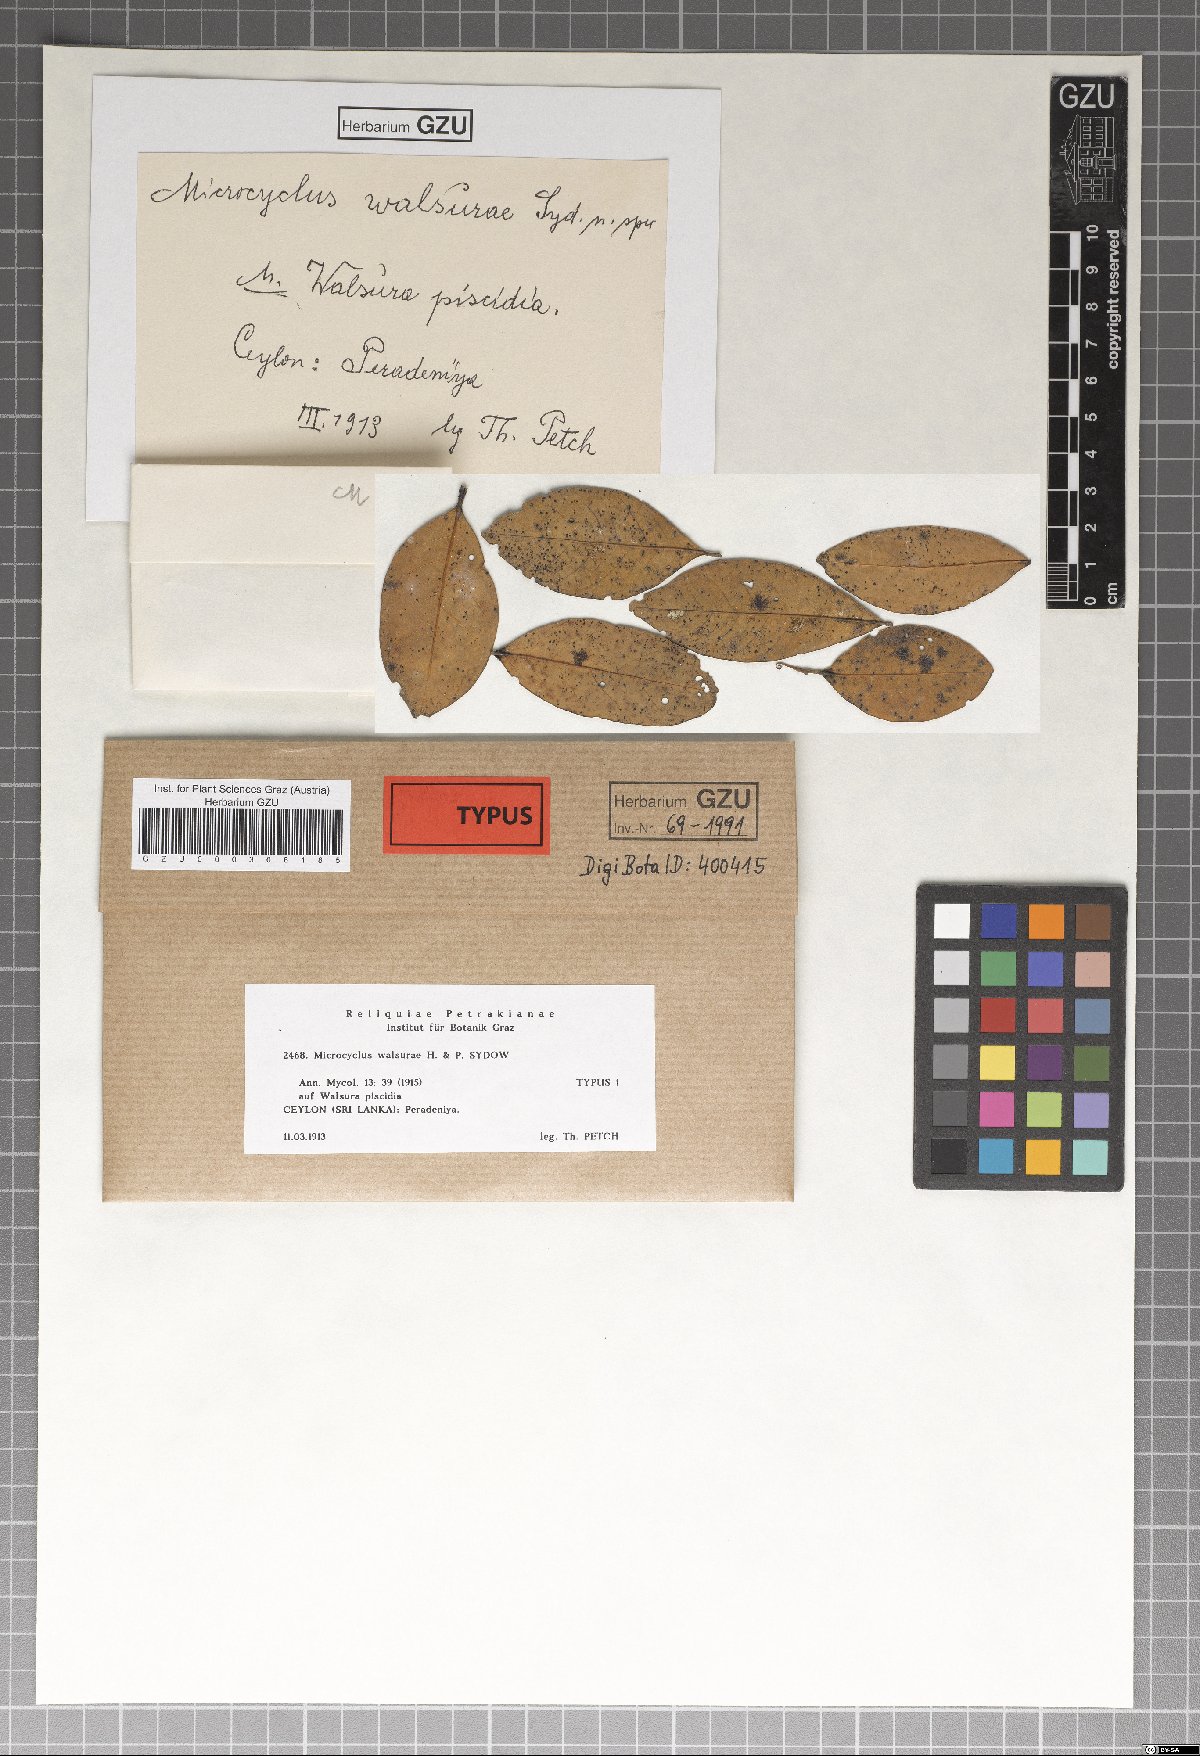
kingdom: Plantae
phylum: Bryophyta
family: Dothideomycetes
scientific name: Dothideomycetes
